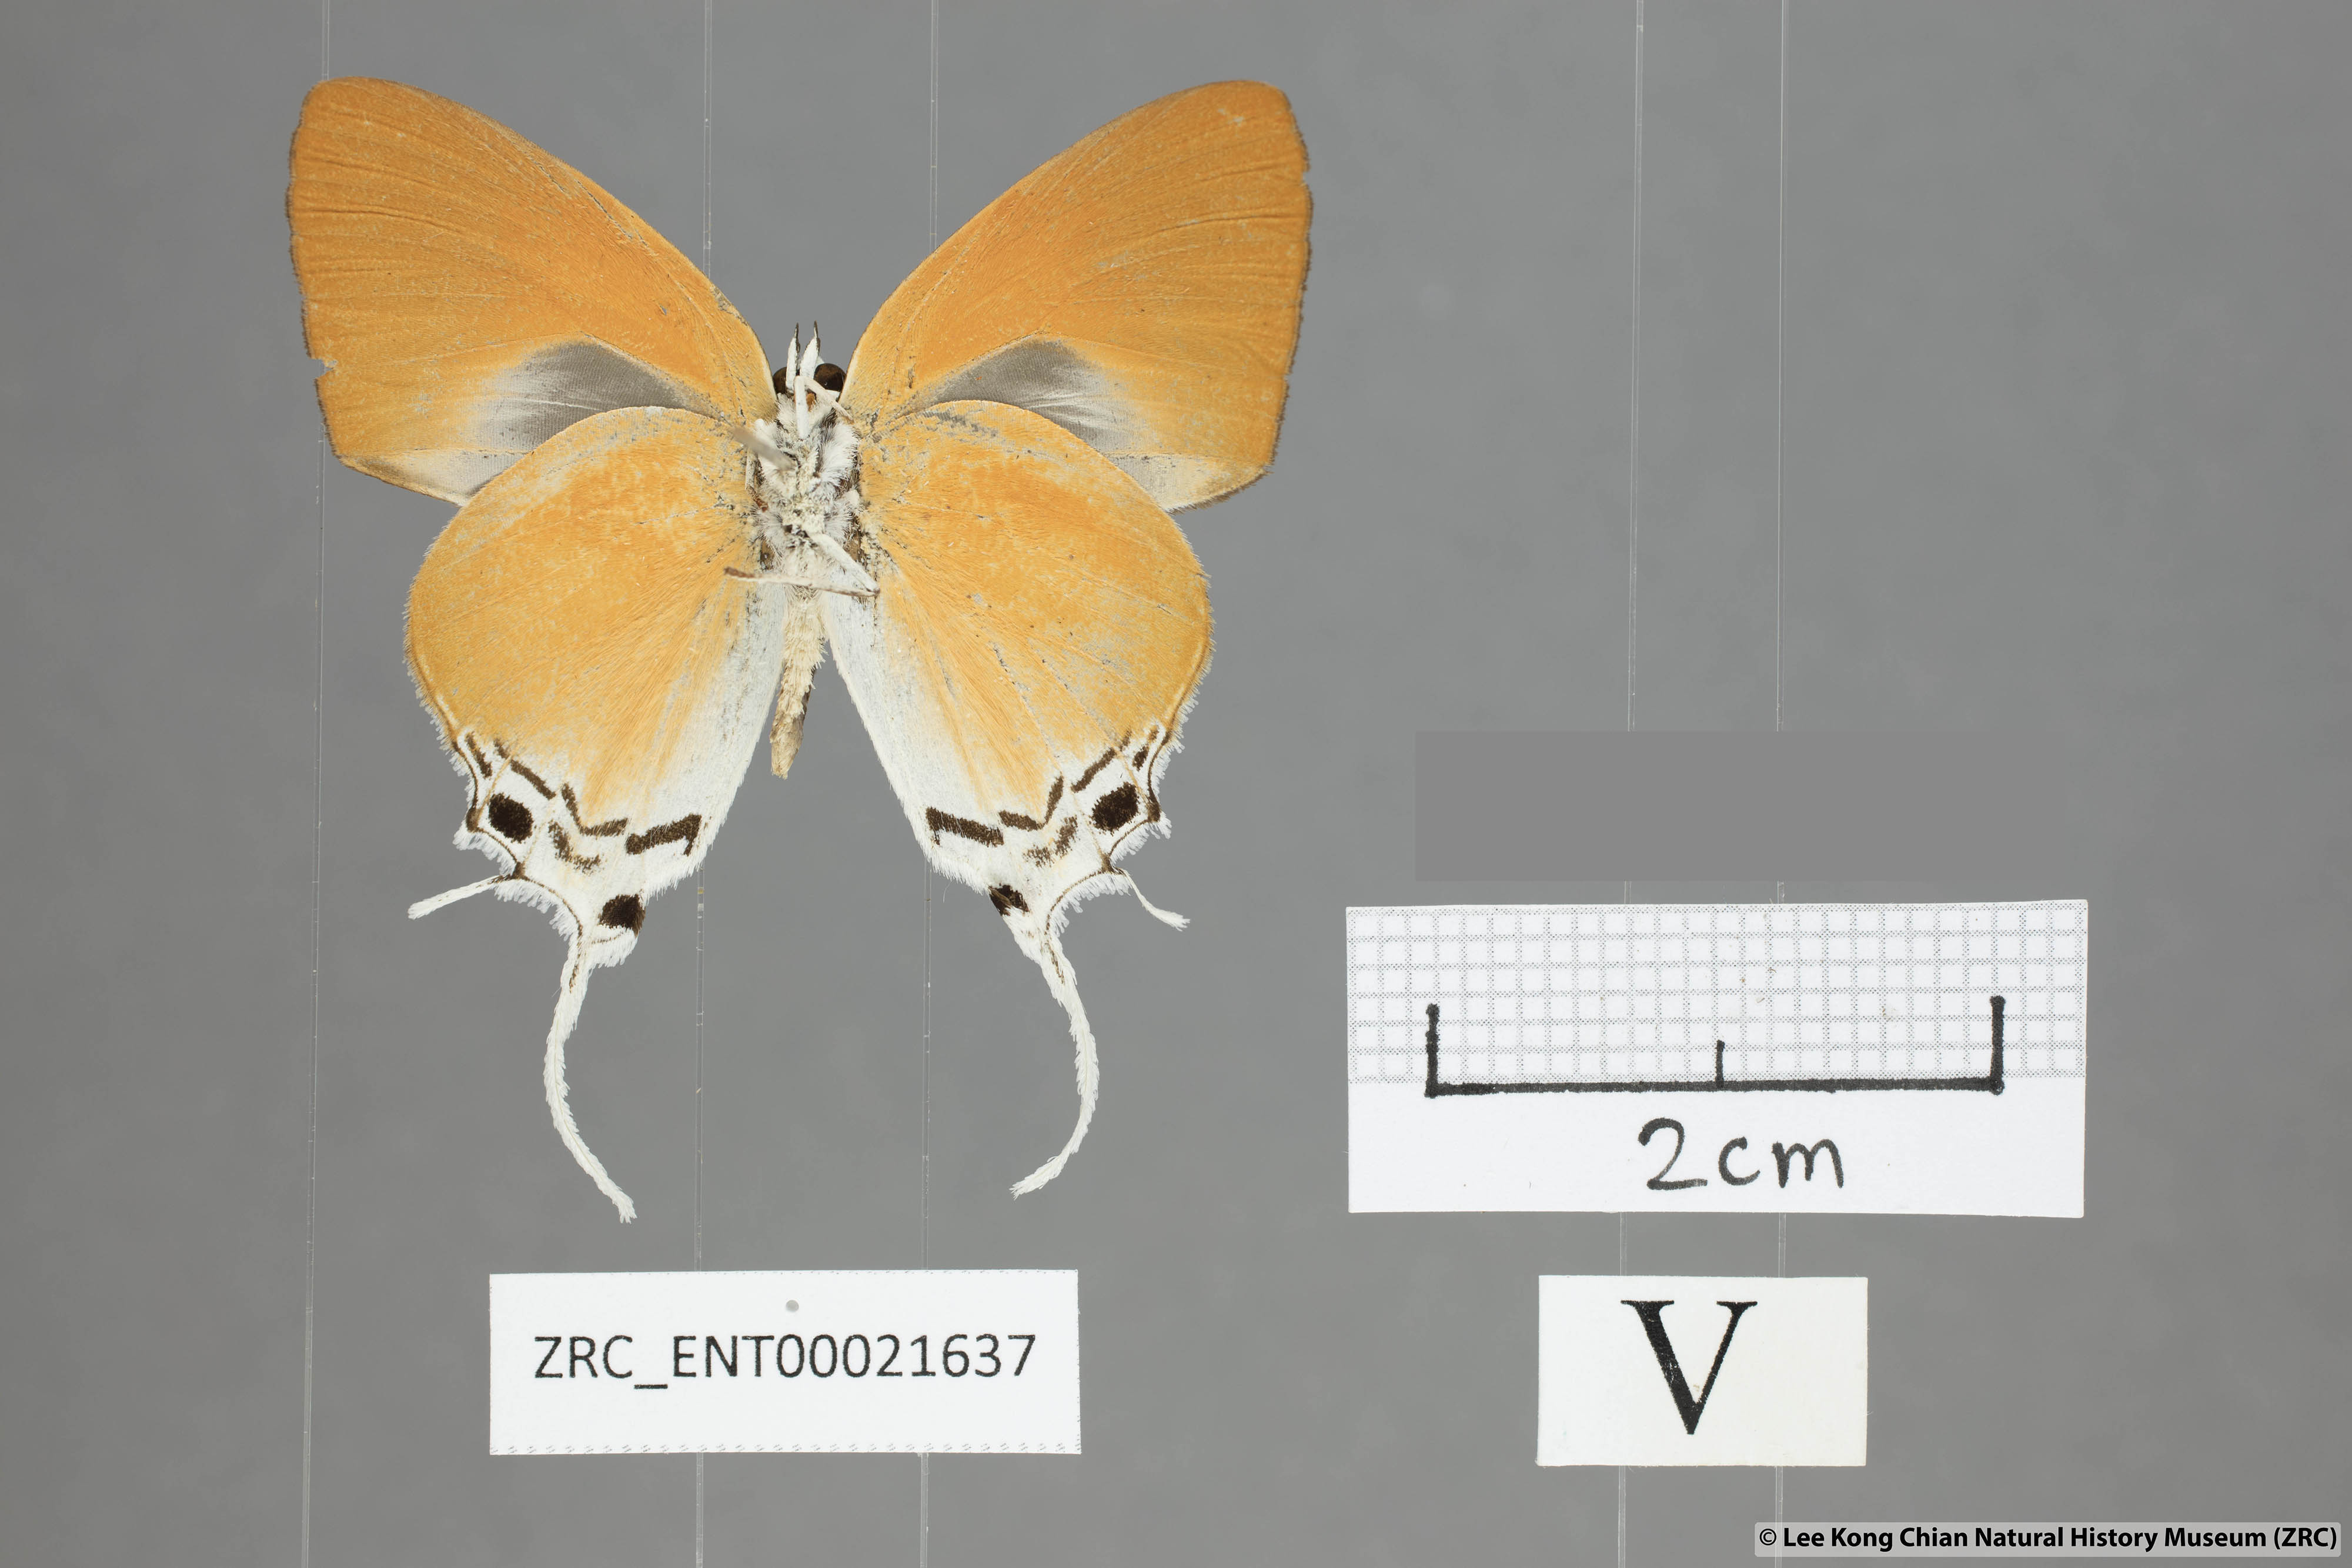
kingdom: Animalia
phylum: Arthropoda
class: Insecta
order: Lepidoptera
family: Lycaenidae
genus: Manto
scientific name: Manto hypoleuca
